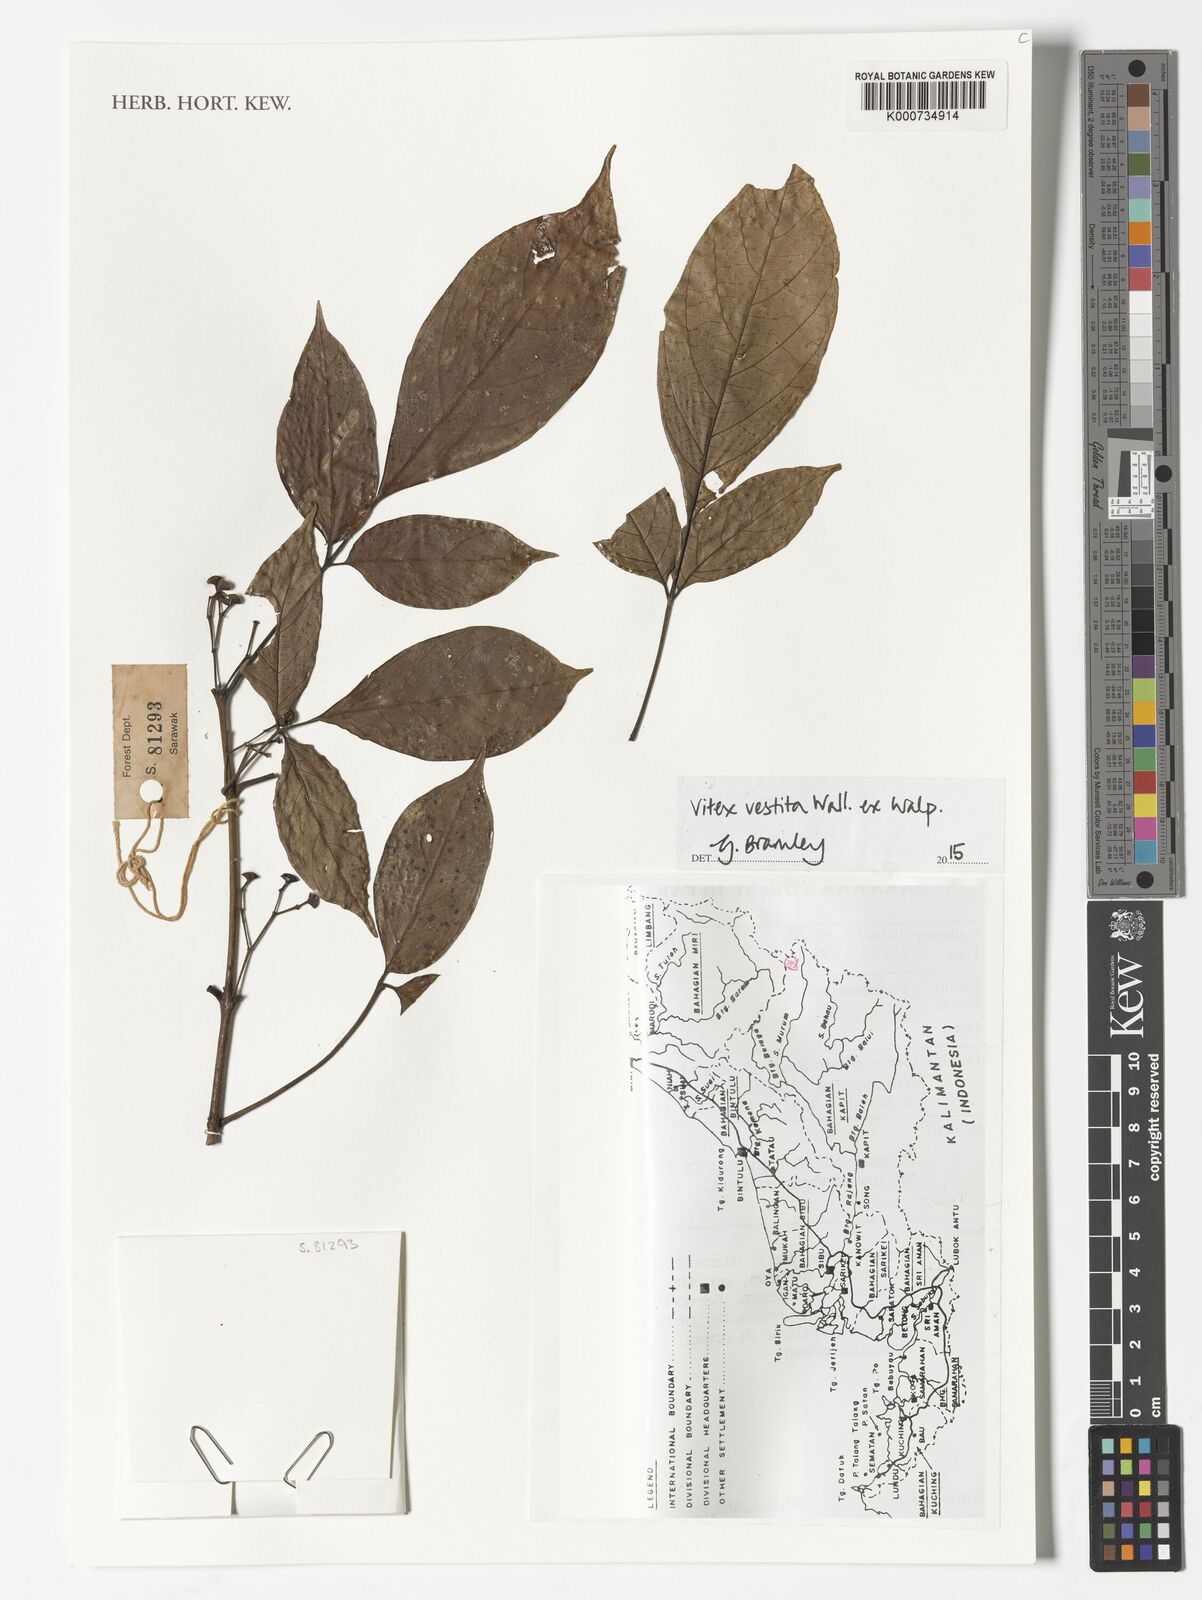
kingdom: Plantae
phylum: Tracheophyta
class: Magnoliopsida
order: Lamiales
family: Lamiaceae
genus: Vitex
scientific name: Vitex vestita
